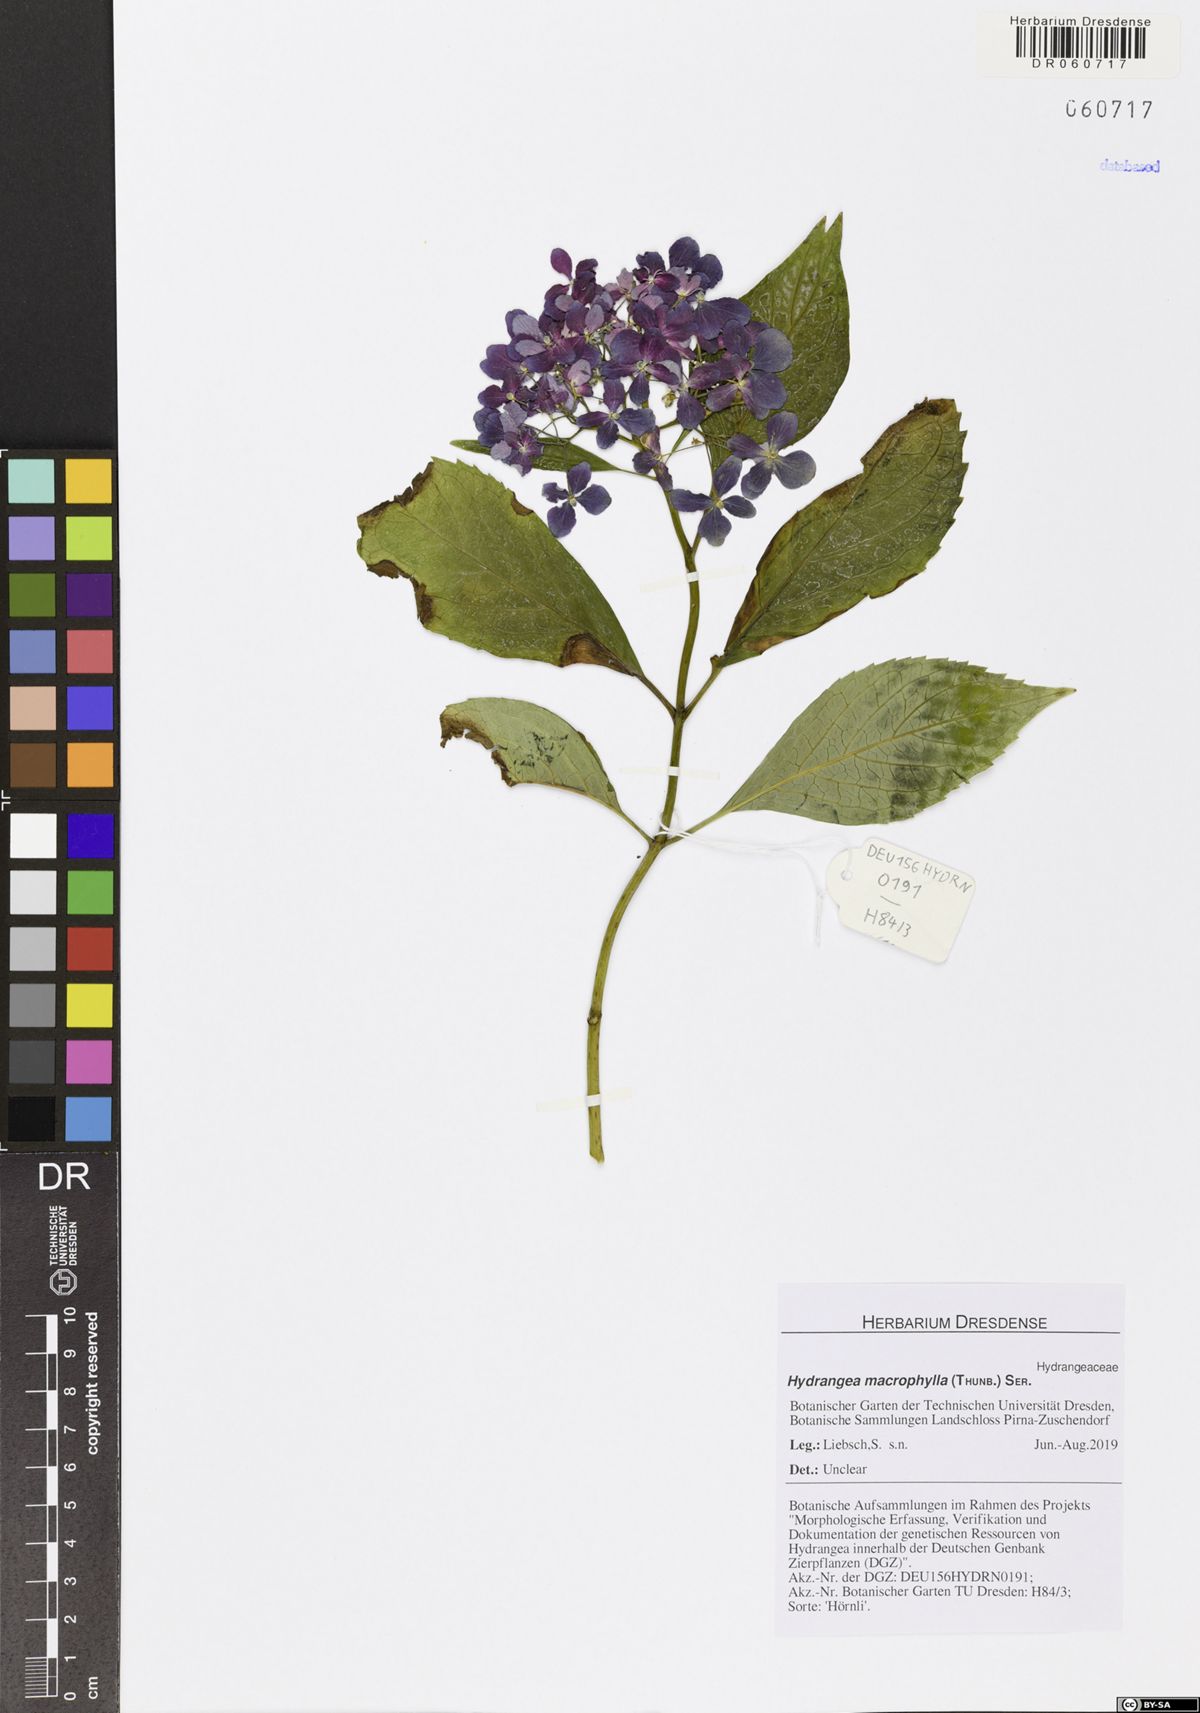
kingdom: Plantae
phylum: Tracheophyta
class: Magnoliopsida
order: Cornales
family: Hydrangeaceae
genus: Hydrangea
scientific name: Hydrangea macrophylla
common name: Hydrangea
